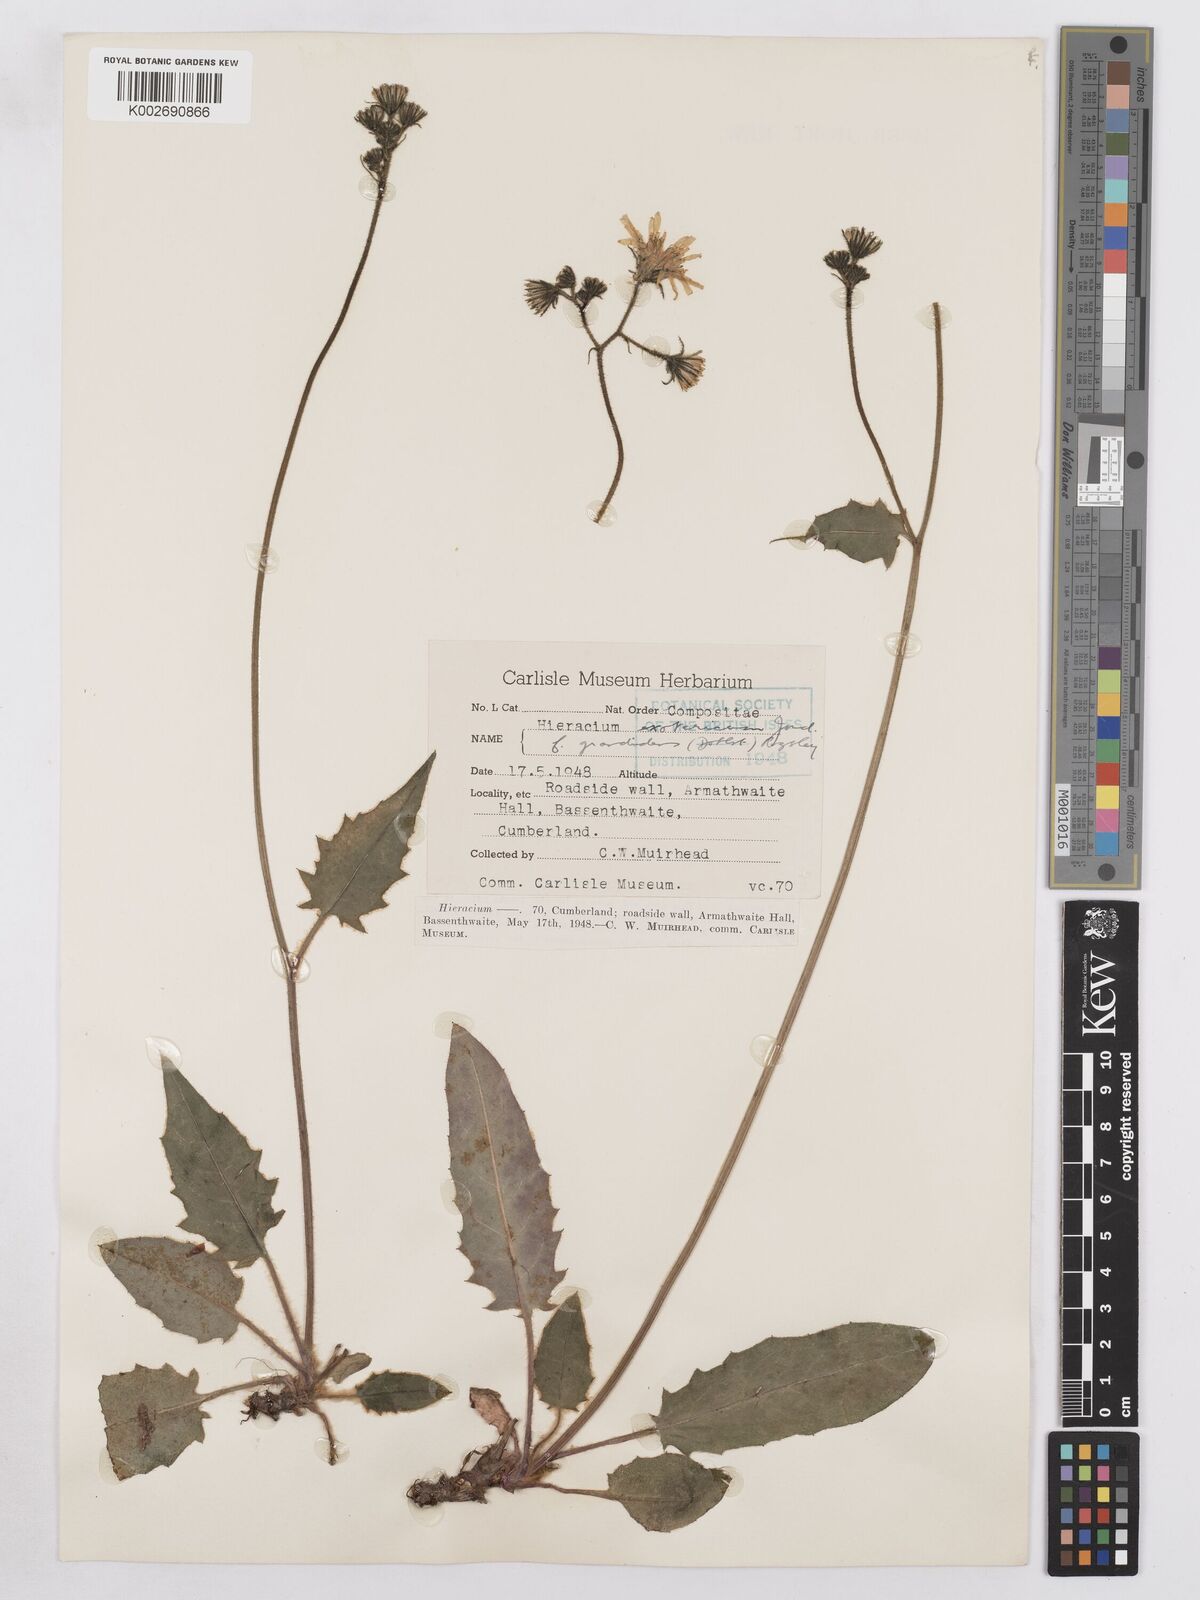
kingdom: Plantae
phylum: Tracheophyta
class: Magnoliopsida
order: Asterales
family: Asteraceae
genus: Hieracium
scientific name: Hieracium murorum
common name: Wall hawkweed
